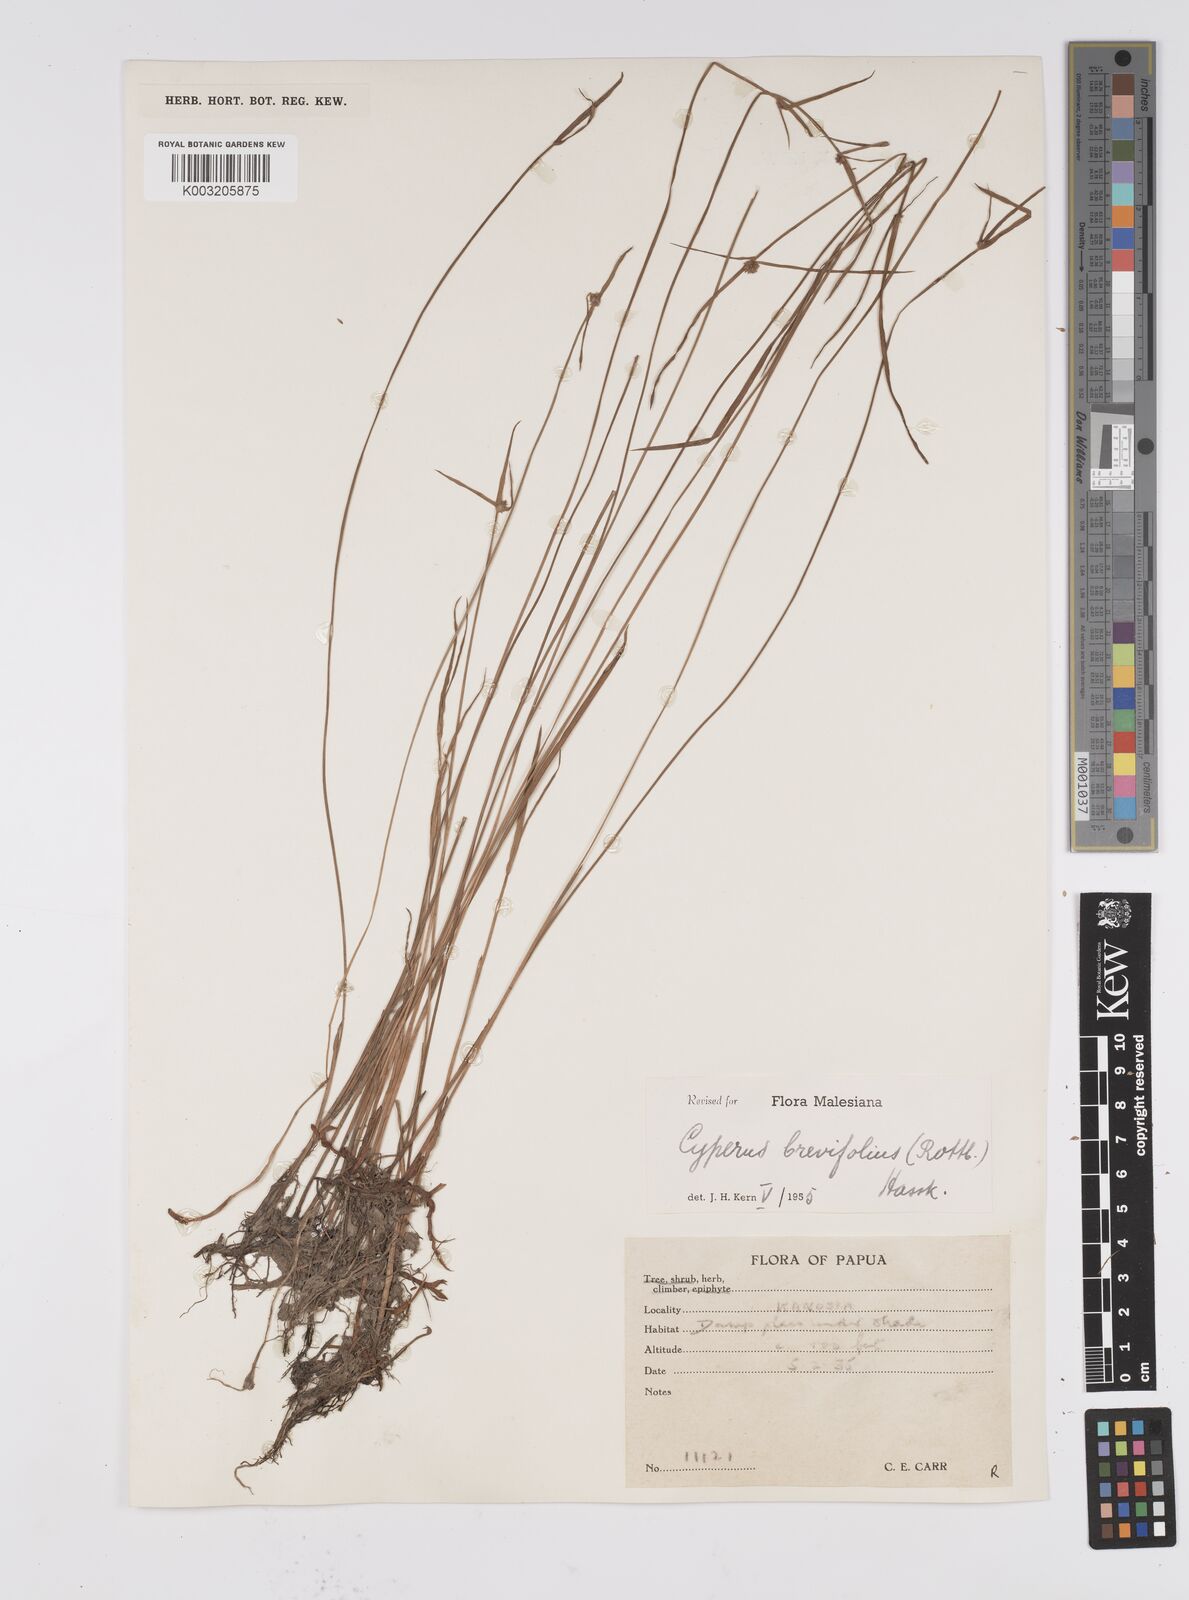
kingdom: Plantae
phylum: Tracheophyta
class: Liliopsida
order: Poales
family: Cyperaceae
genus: Cyperus
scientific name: Cyperus brevifolius
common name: Globe kyllinga
